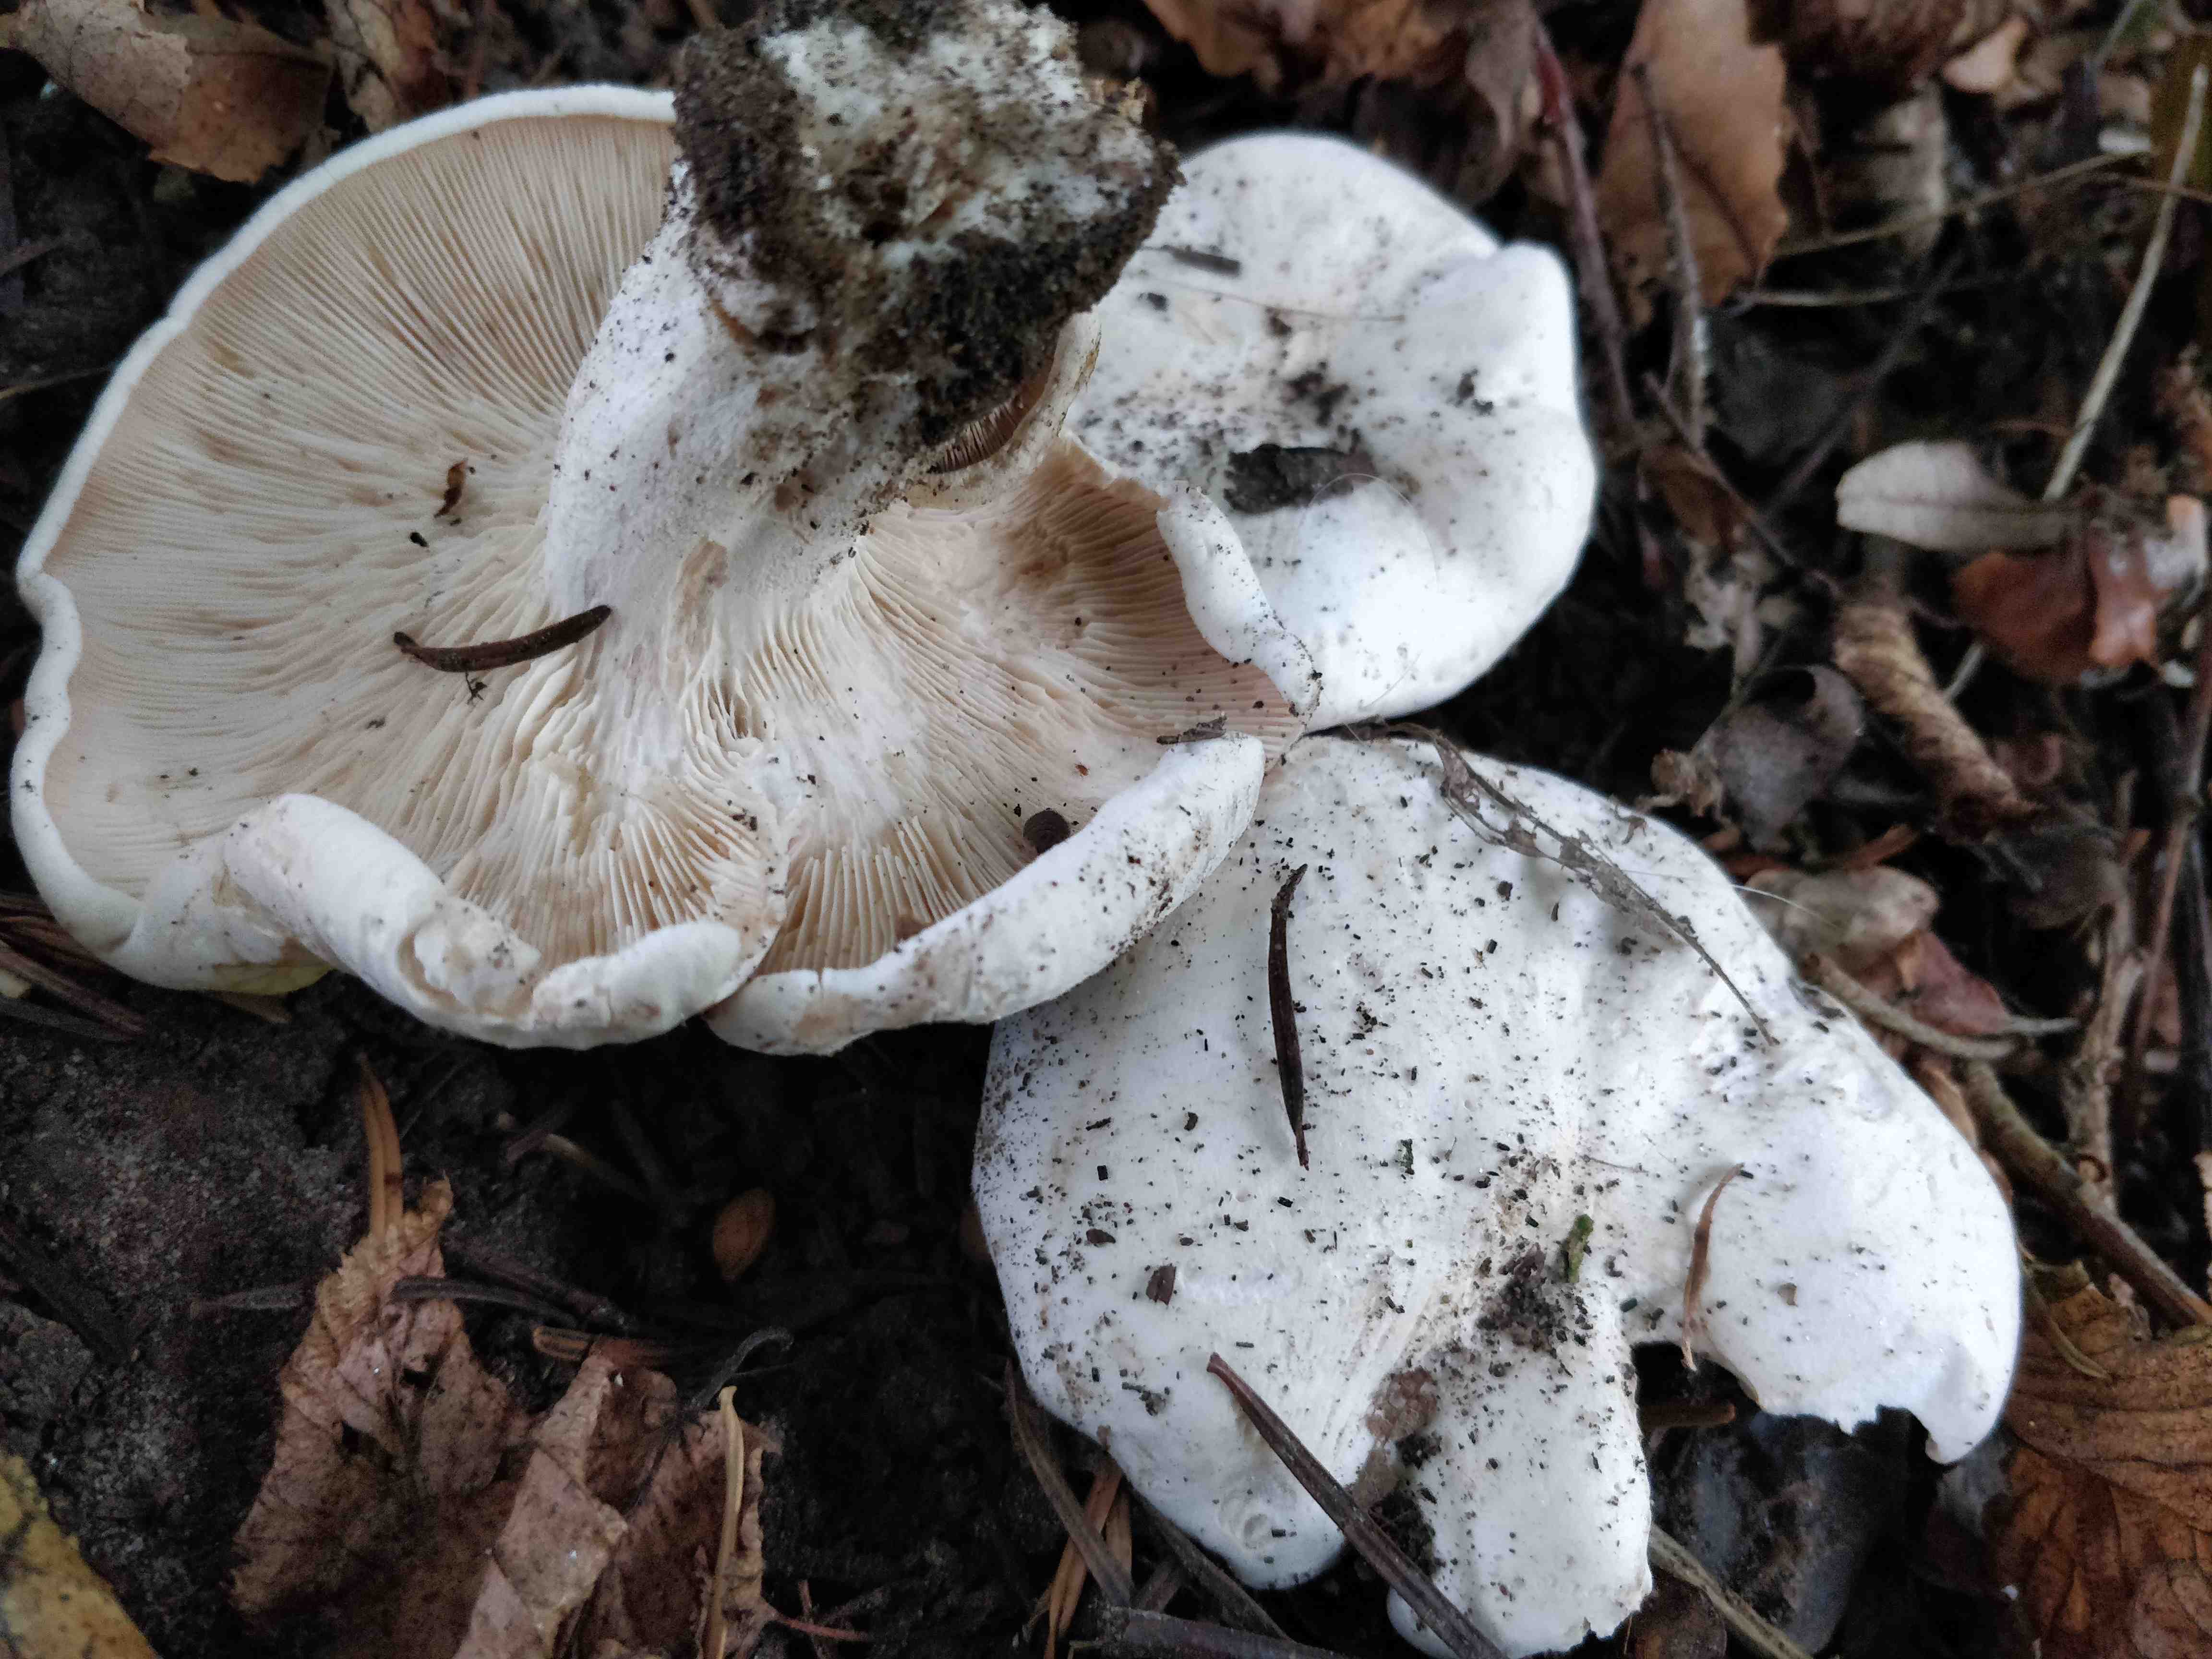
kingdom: Fungi
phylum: Basidiomycota
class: Agaricomycetes
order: Agaricales
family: Tricholomataceae
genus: Aspropaxillus
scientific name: Aspropaxillus giganteus
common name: kæmpe-tragtridderhat
